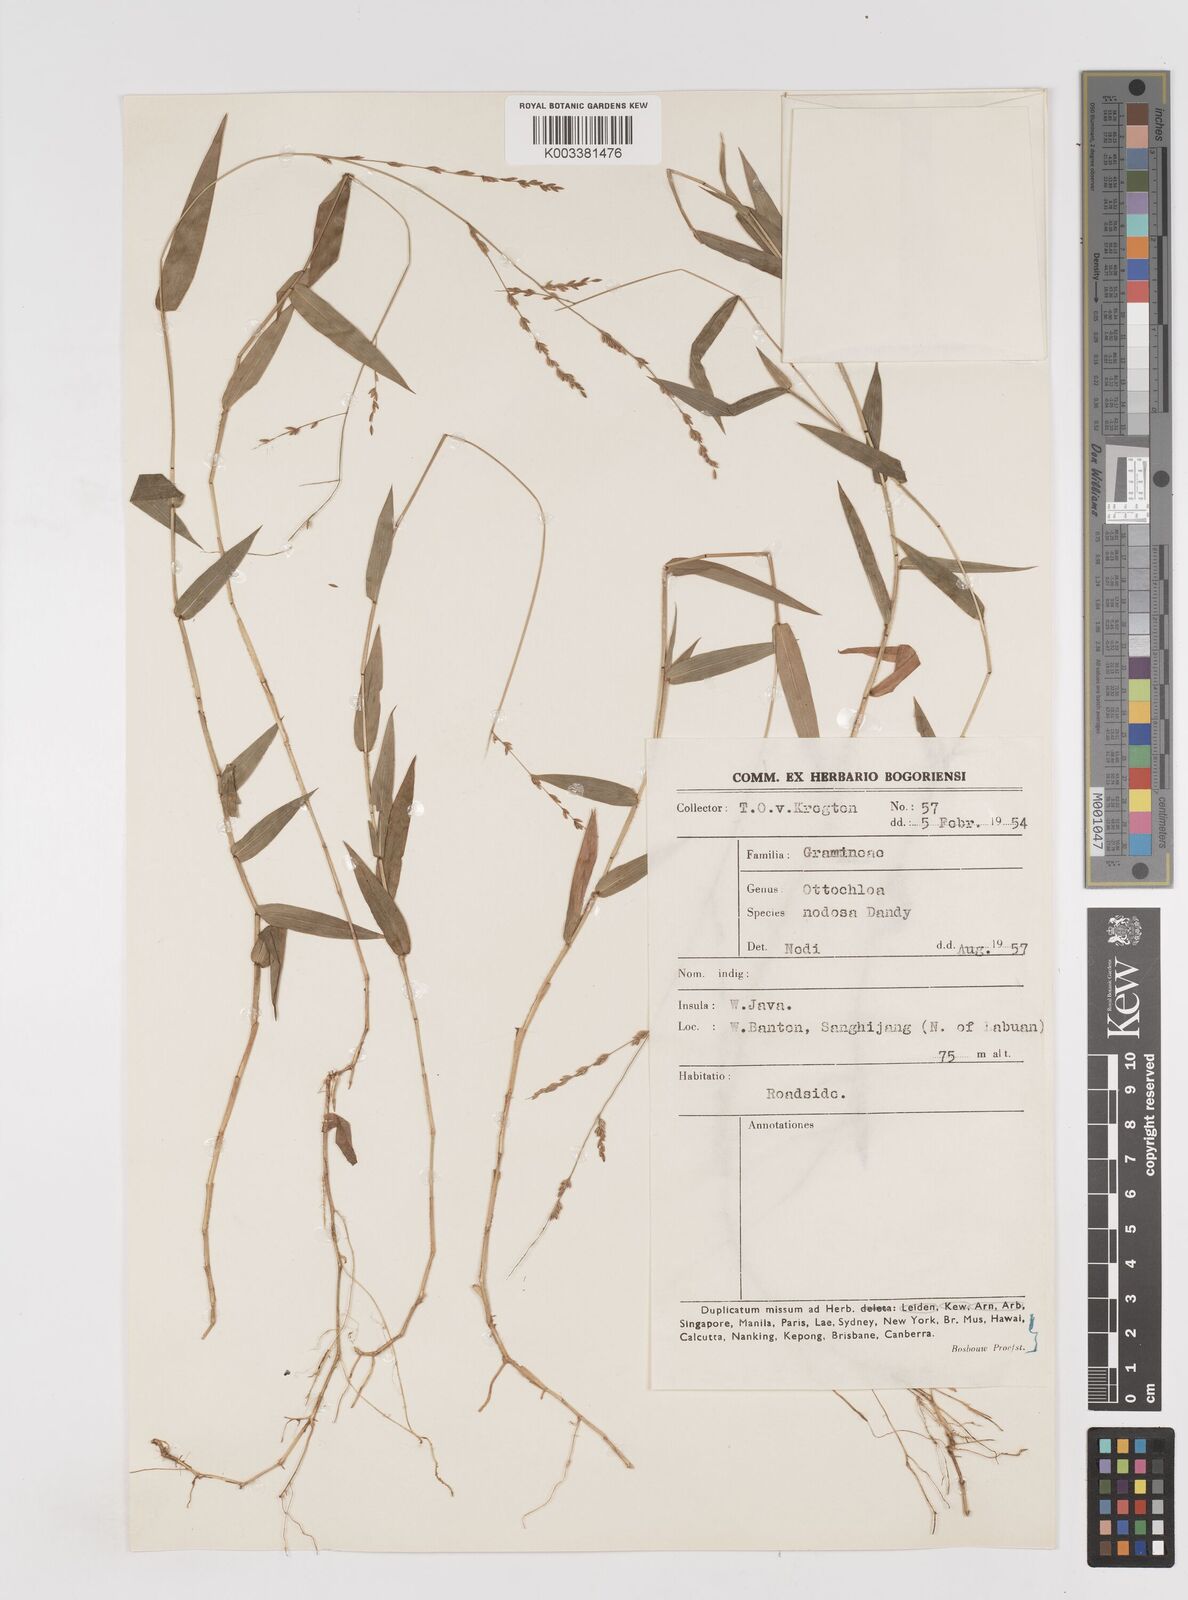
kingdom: Plantae
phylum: Tracheophyta
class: Liliopsida
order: Poales
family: Poaceae
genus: Ottochloa
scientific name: Ottochloa nodosa
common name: Slender-panic grass
